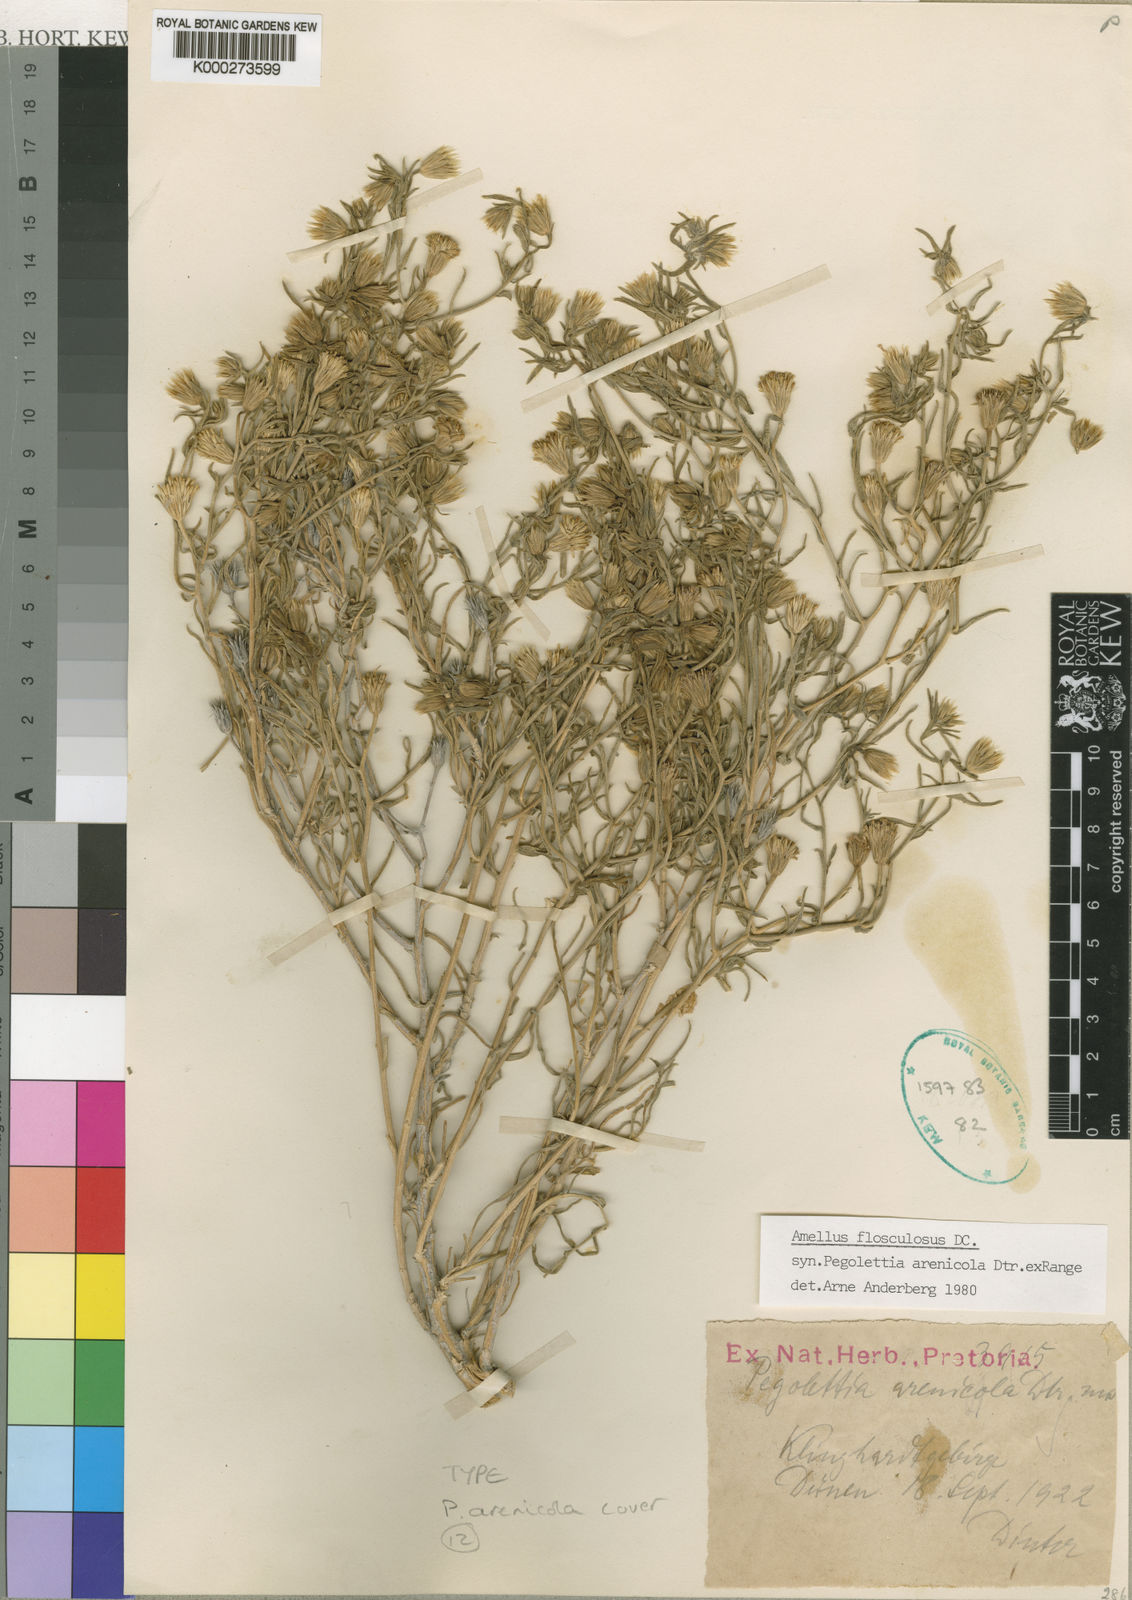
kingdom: Plantae
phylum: Tracheophyta
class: Magnoliopsida
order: Asterales
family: Asteraceae
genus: Amellus
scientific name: Amellus flosculosus
